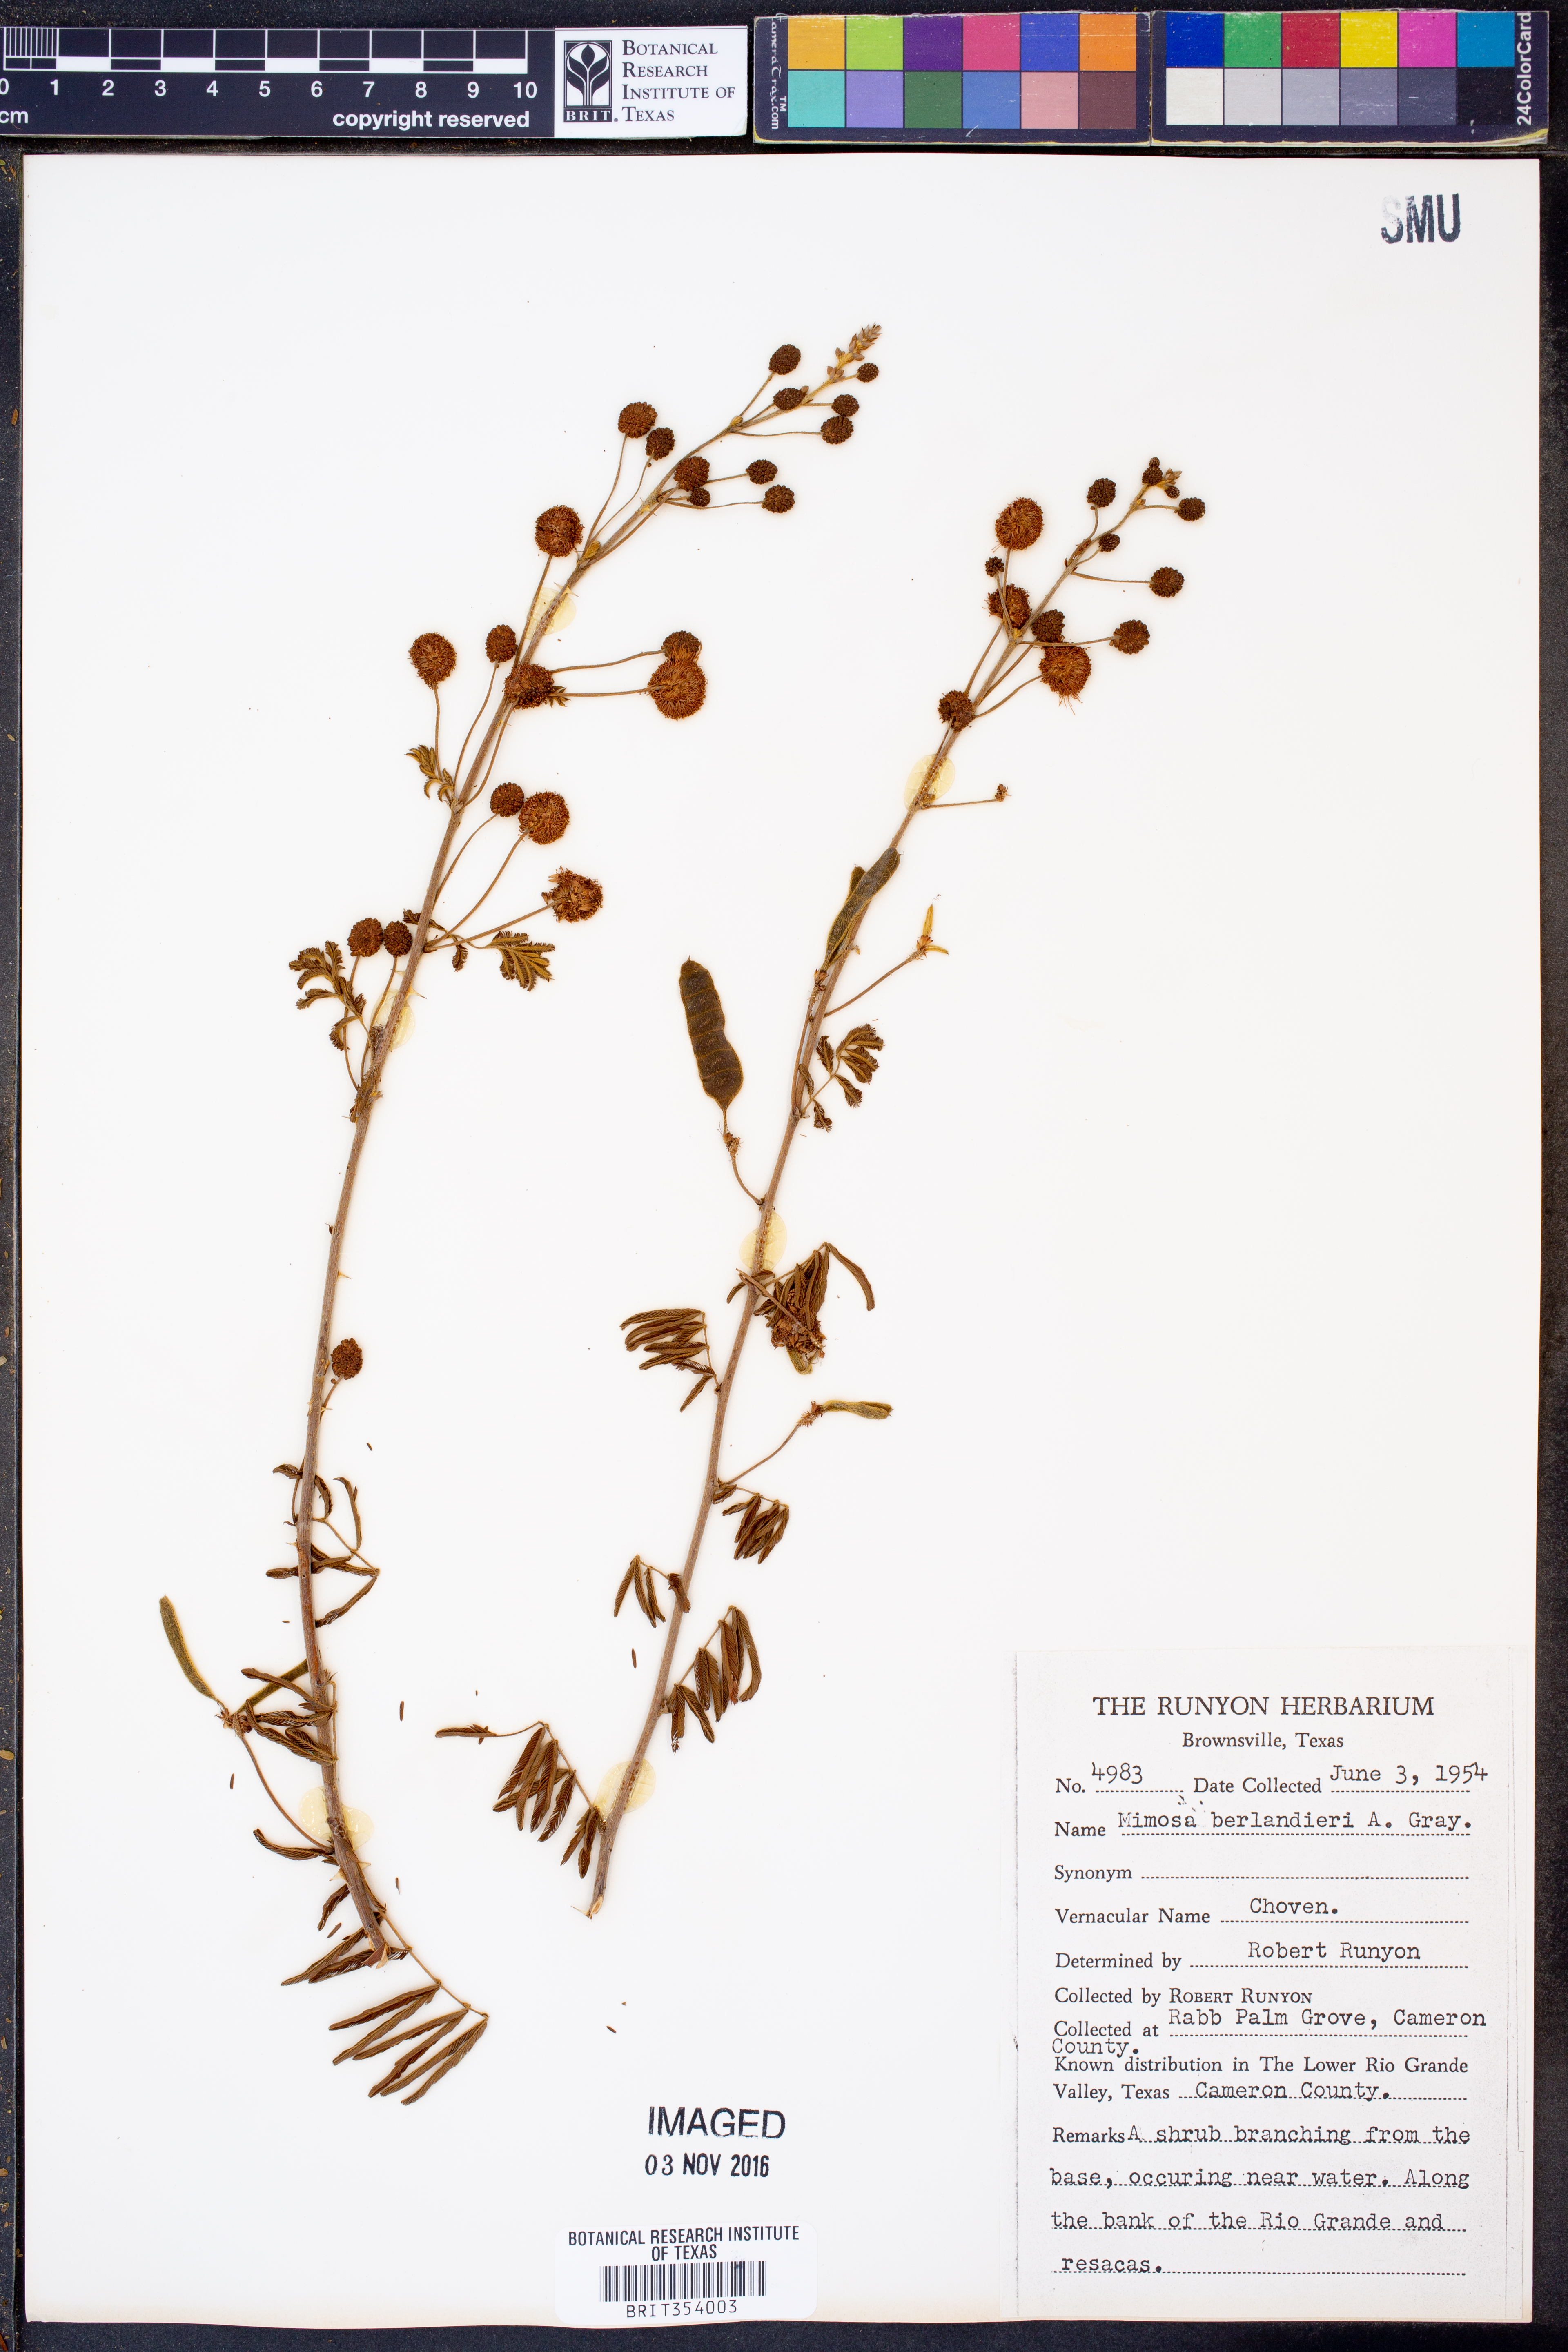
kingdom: Plantae
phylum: Tracheophyta
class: Magnoliopsida
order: Fabales
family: Fabaceae
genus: Mimosa
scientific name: Mimosa pigra
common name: Black mimosa
